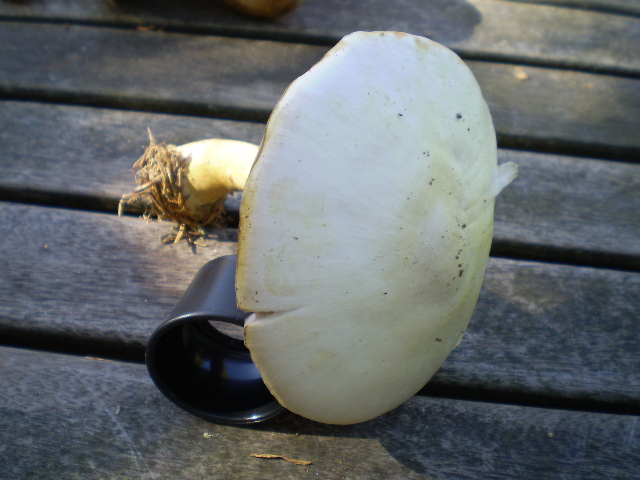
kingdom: Fungi
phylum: Basidiomycota
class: Agaricomycetes
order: Agaricales
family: Agaricaceae
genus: Agaricus
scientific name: Agaricus sylvicola
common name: skiveknoldet champignon
